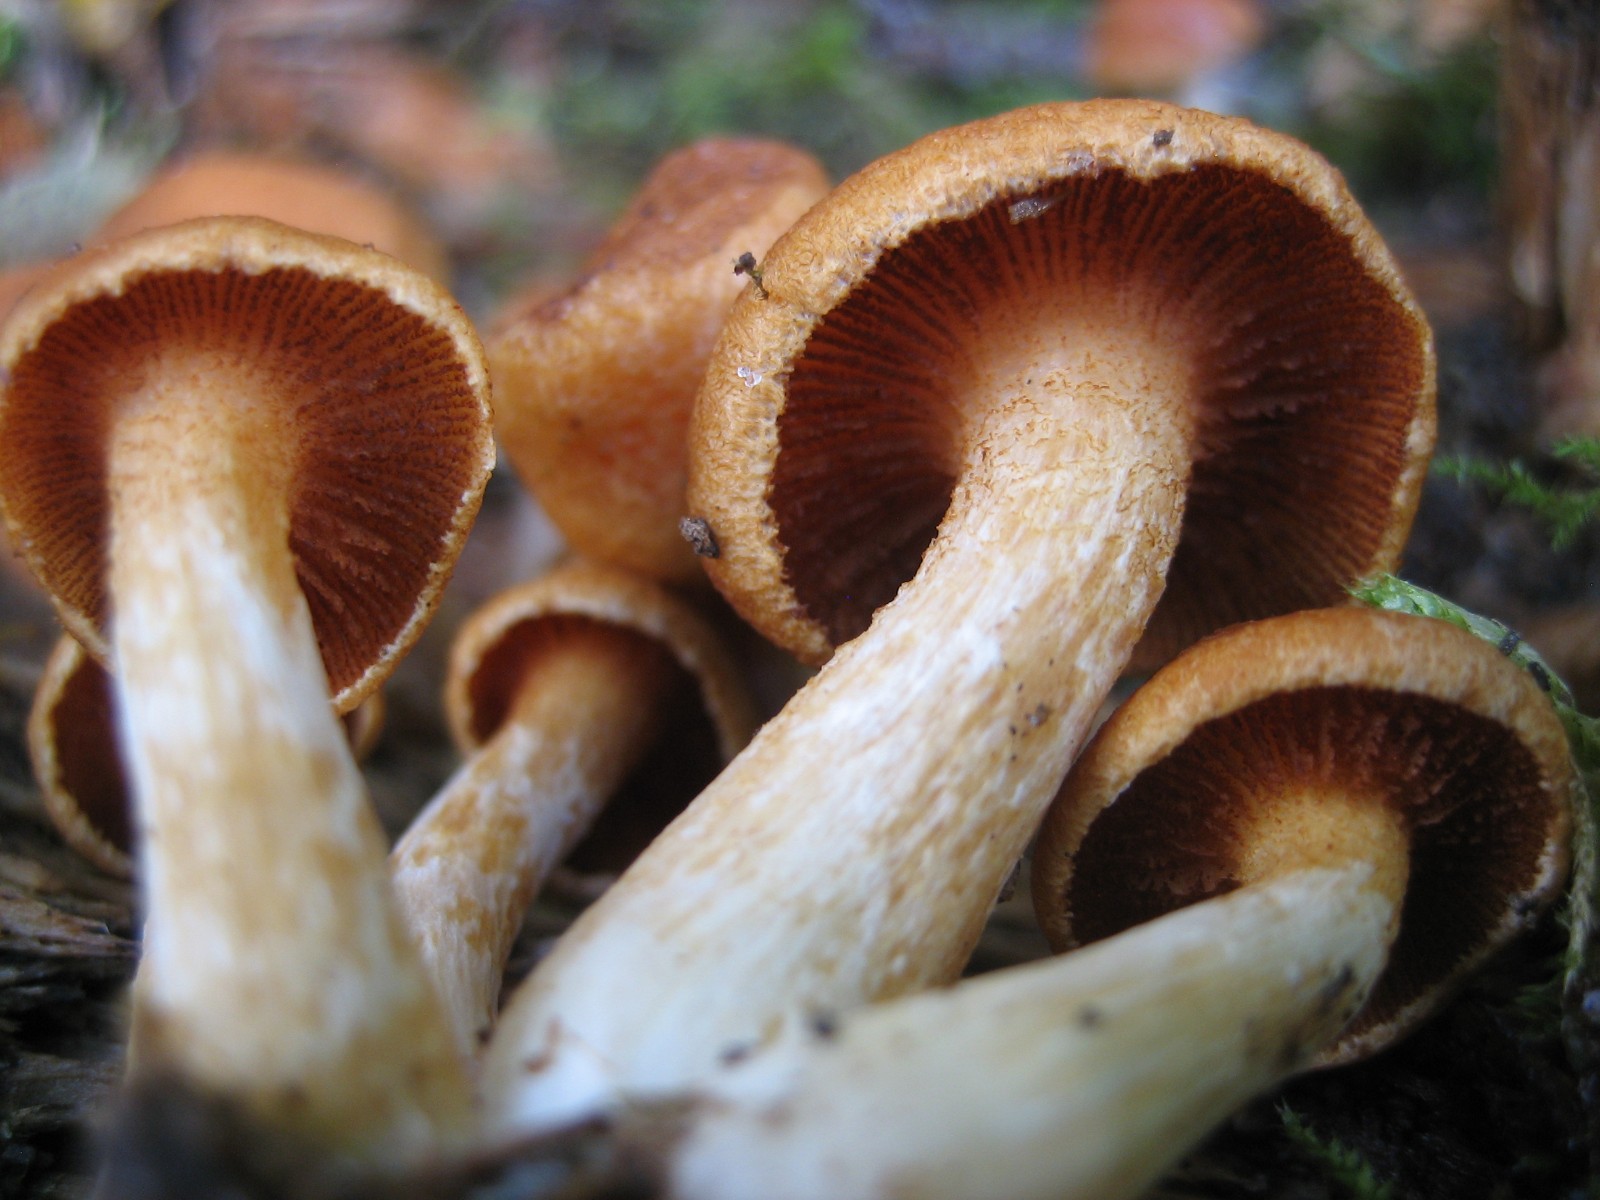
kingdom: Fungi
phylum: Basidiomycota
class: Agaricomycetes
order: Agaricales
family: Hymenogastraceae
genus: Gymnopilus
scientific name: Gymnopilus spectabilis
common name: fibret flammehat
